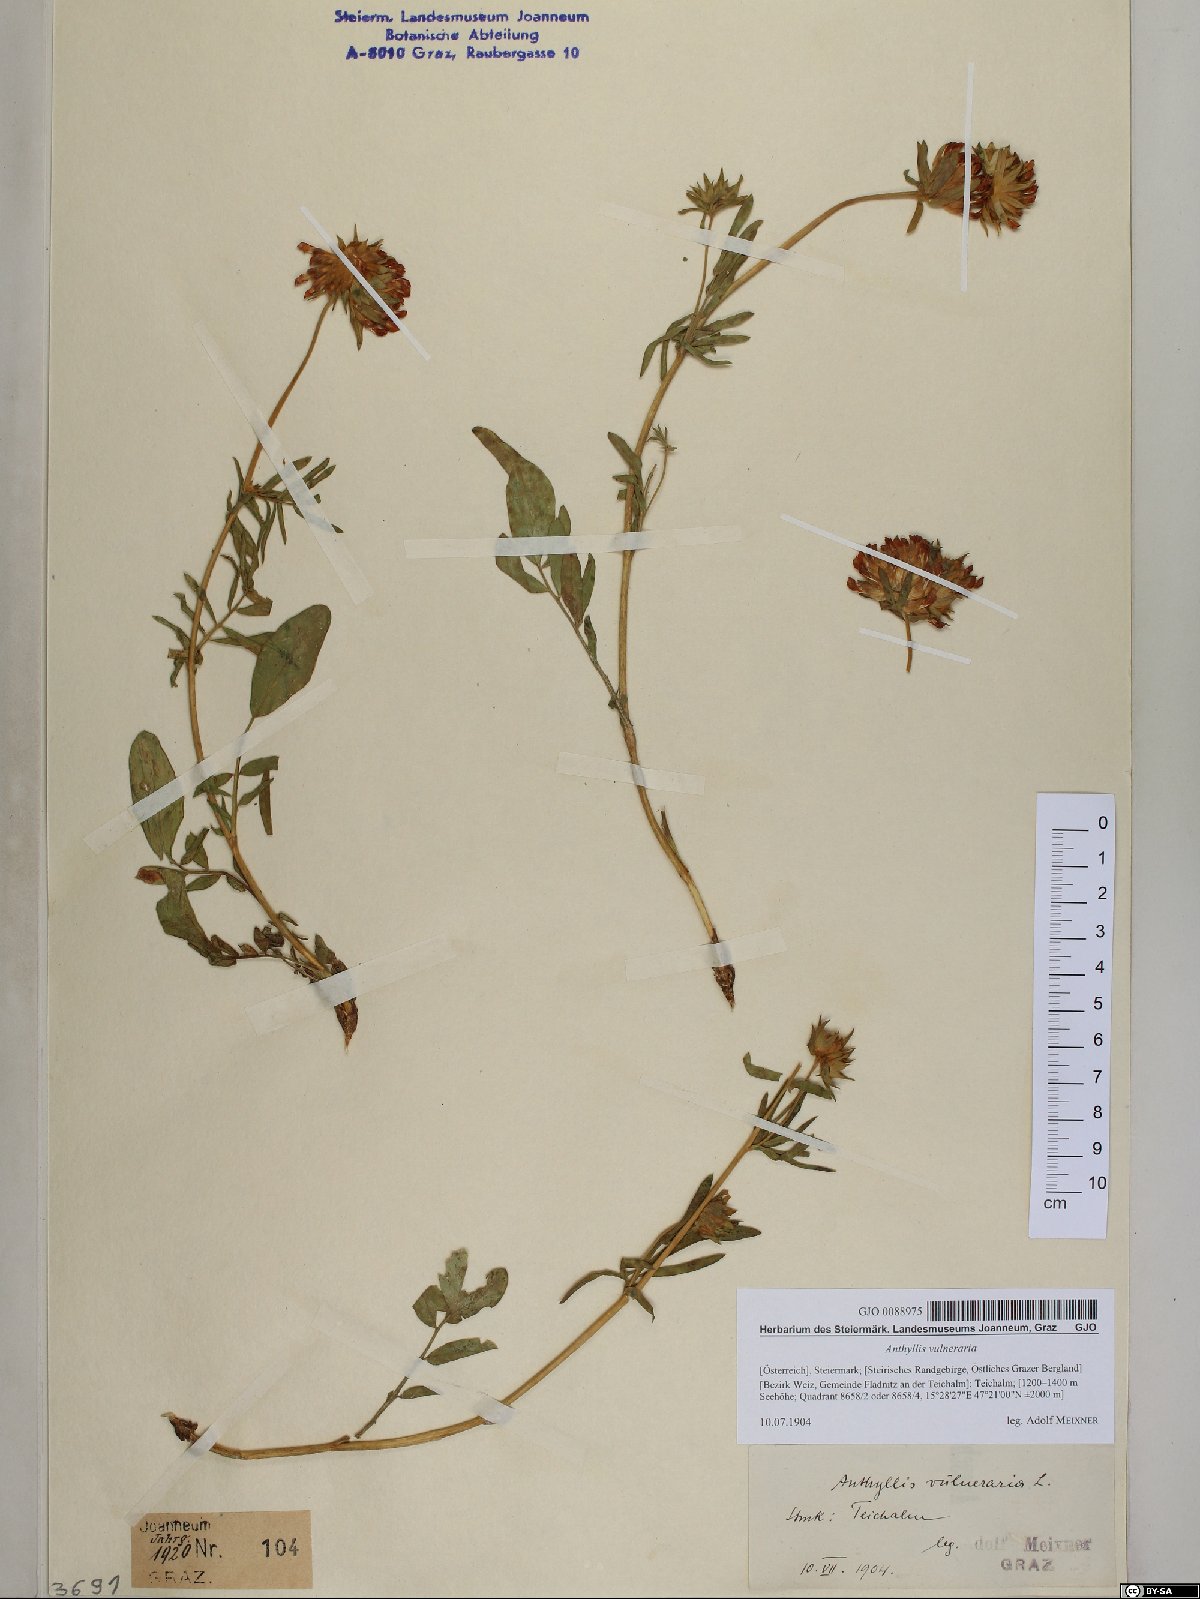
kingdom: Plantae
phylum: Tracheophyta
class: Magnoliopsida
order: Fabales
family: Fabaceae
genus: Anthyllis
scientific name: Anthyllis vulneraria
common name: Kidney vetch
